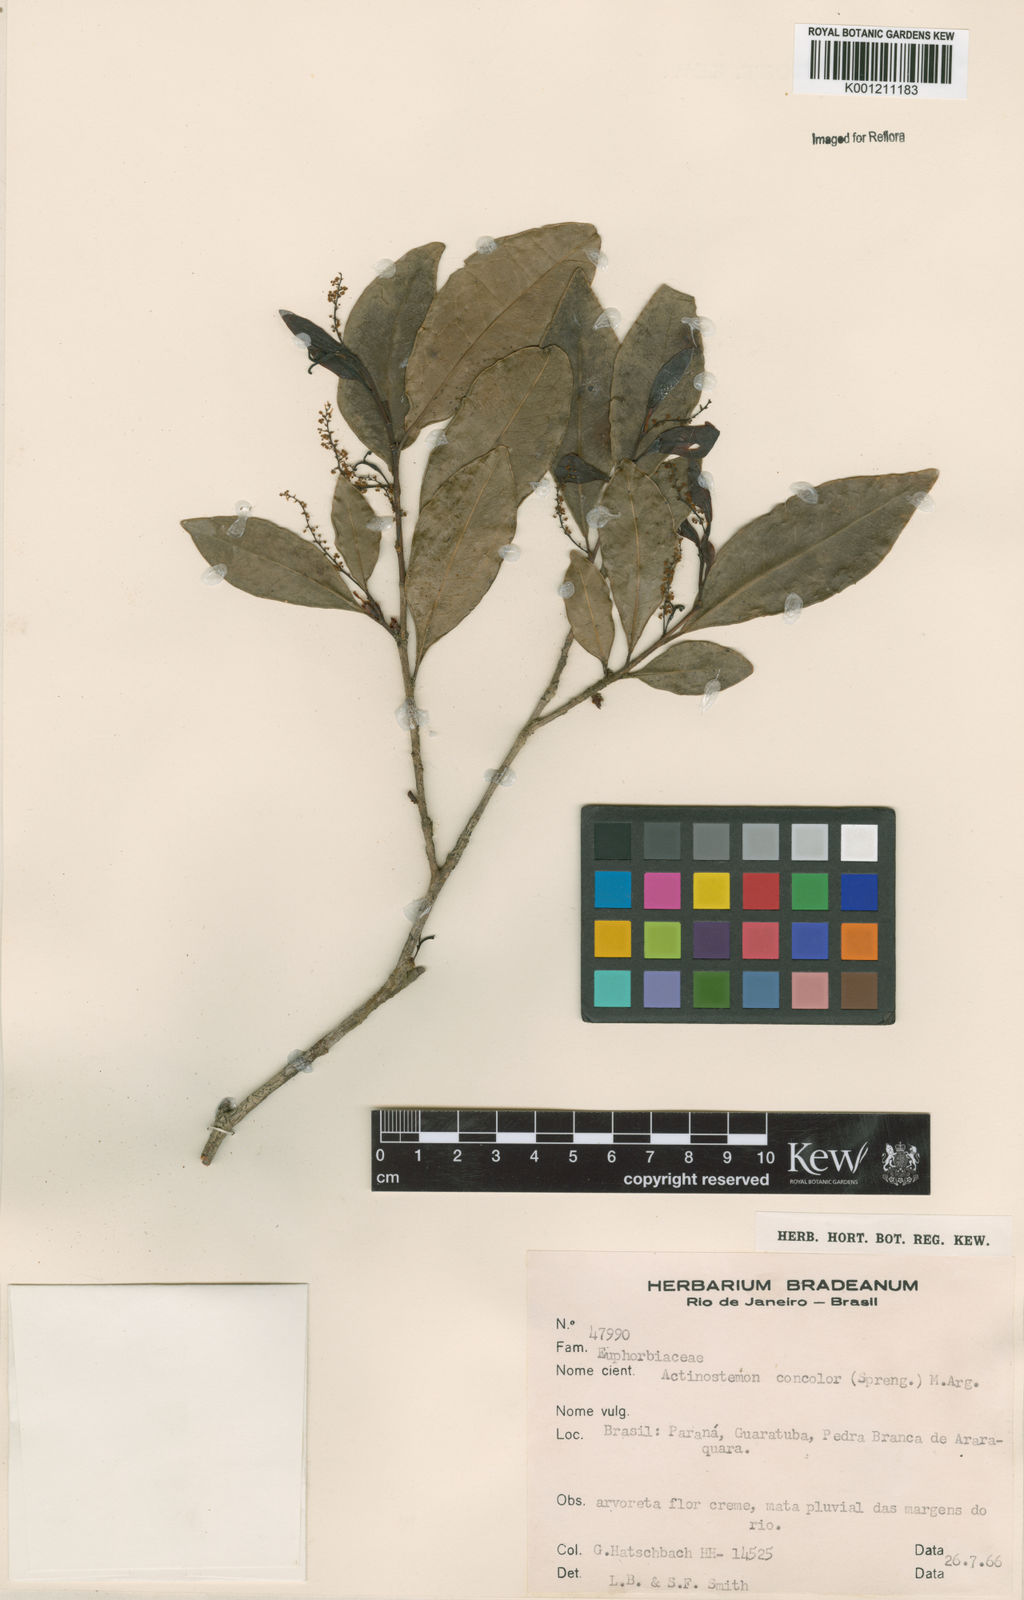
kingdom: Plantae
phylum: Tracheophyta
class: Magnoliopsida
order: Malpighiales
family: Euphorbiaceae
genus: Actinostemon
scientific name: Actinostemon
